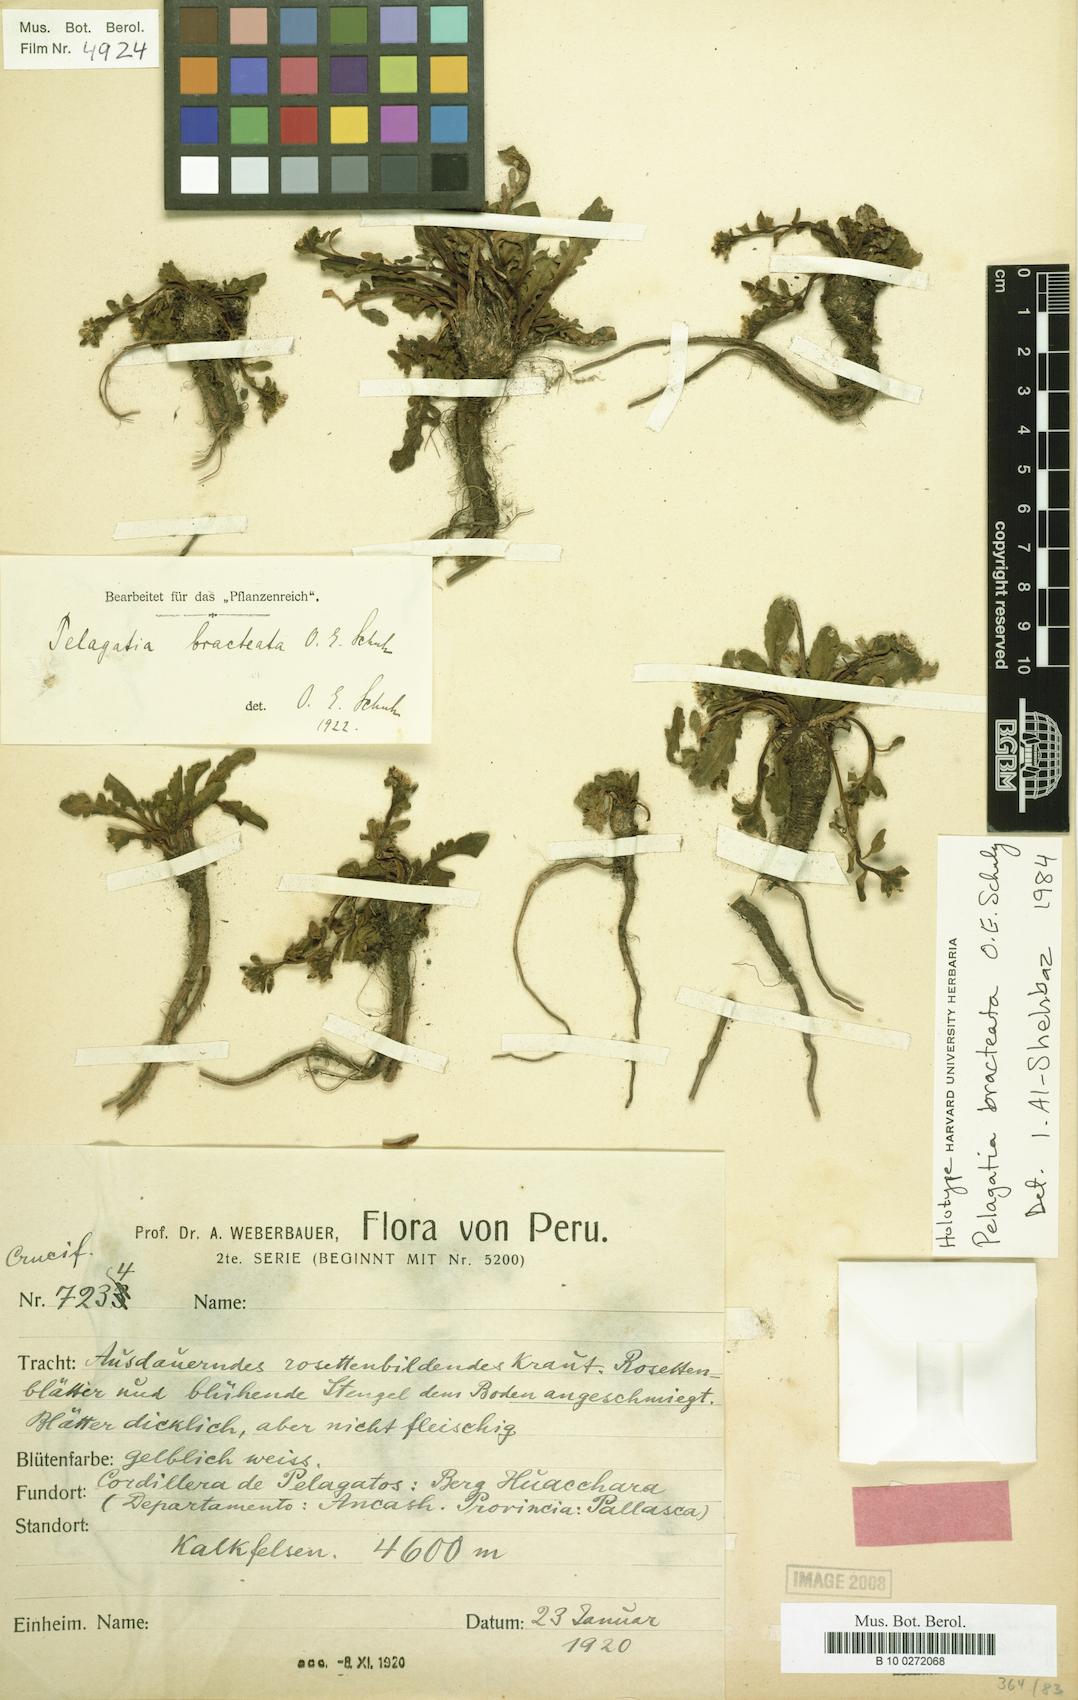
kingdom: Plantae
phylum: Tracheophyta
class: Magnoliopsida
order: Brassicales
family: Brassicaceae
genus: Weberbauera
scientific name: Weberbauera bracteata
